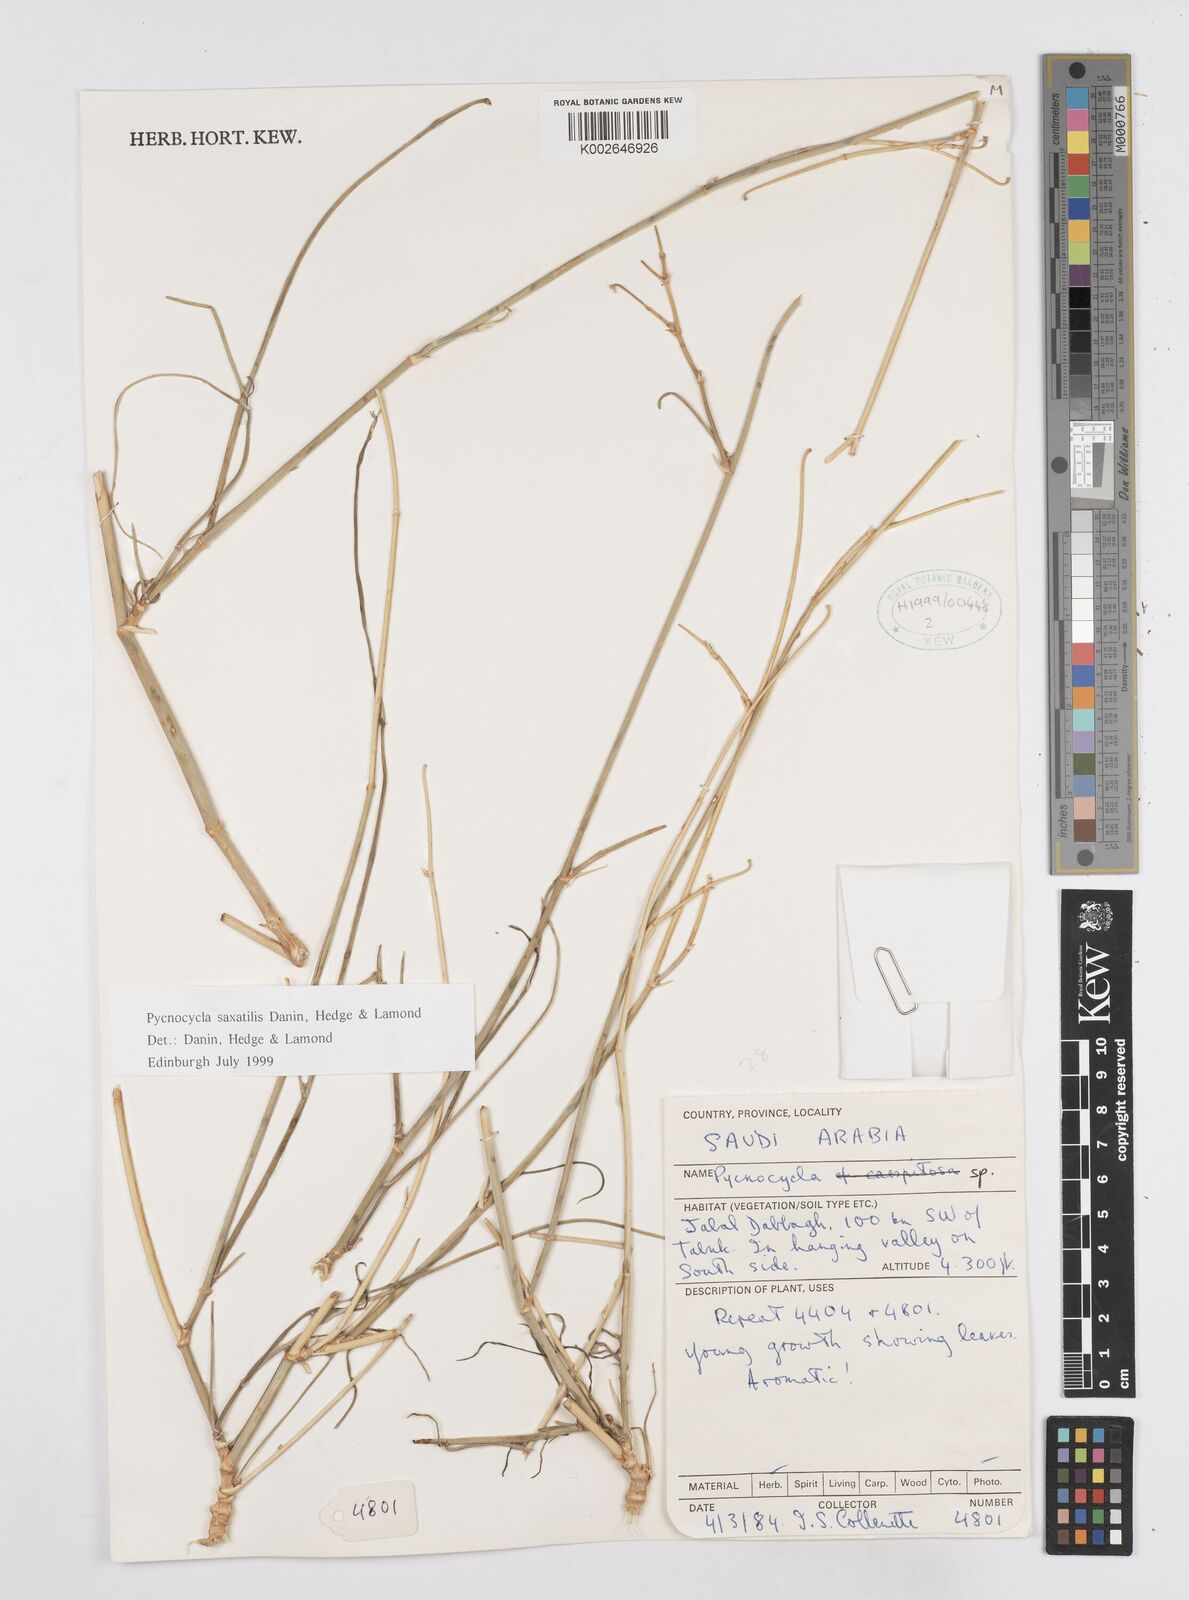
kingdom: Plantae
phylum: Tracheophyta
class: Magnoliopsida
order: Apiales
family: Apiaceae
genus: Pycnocycla
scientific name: Pycnocycla saxatilis
